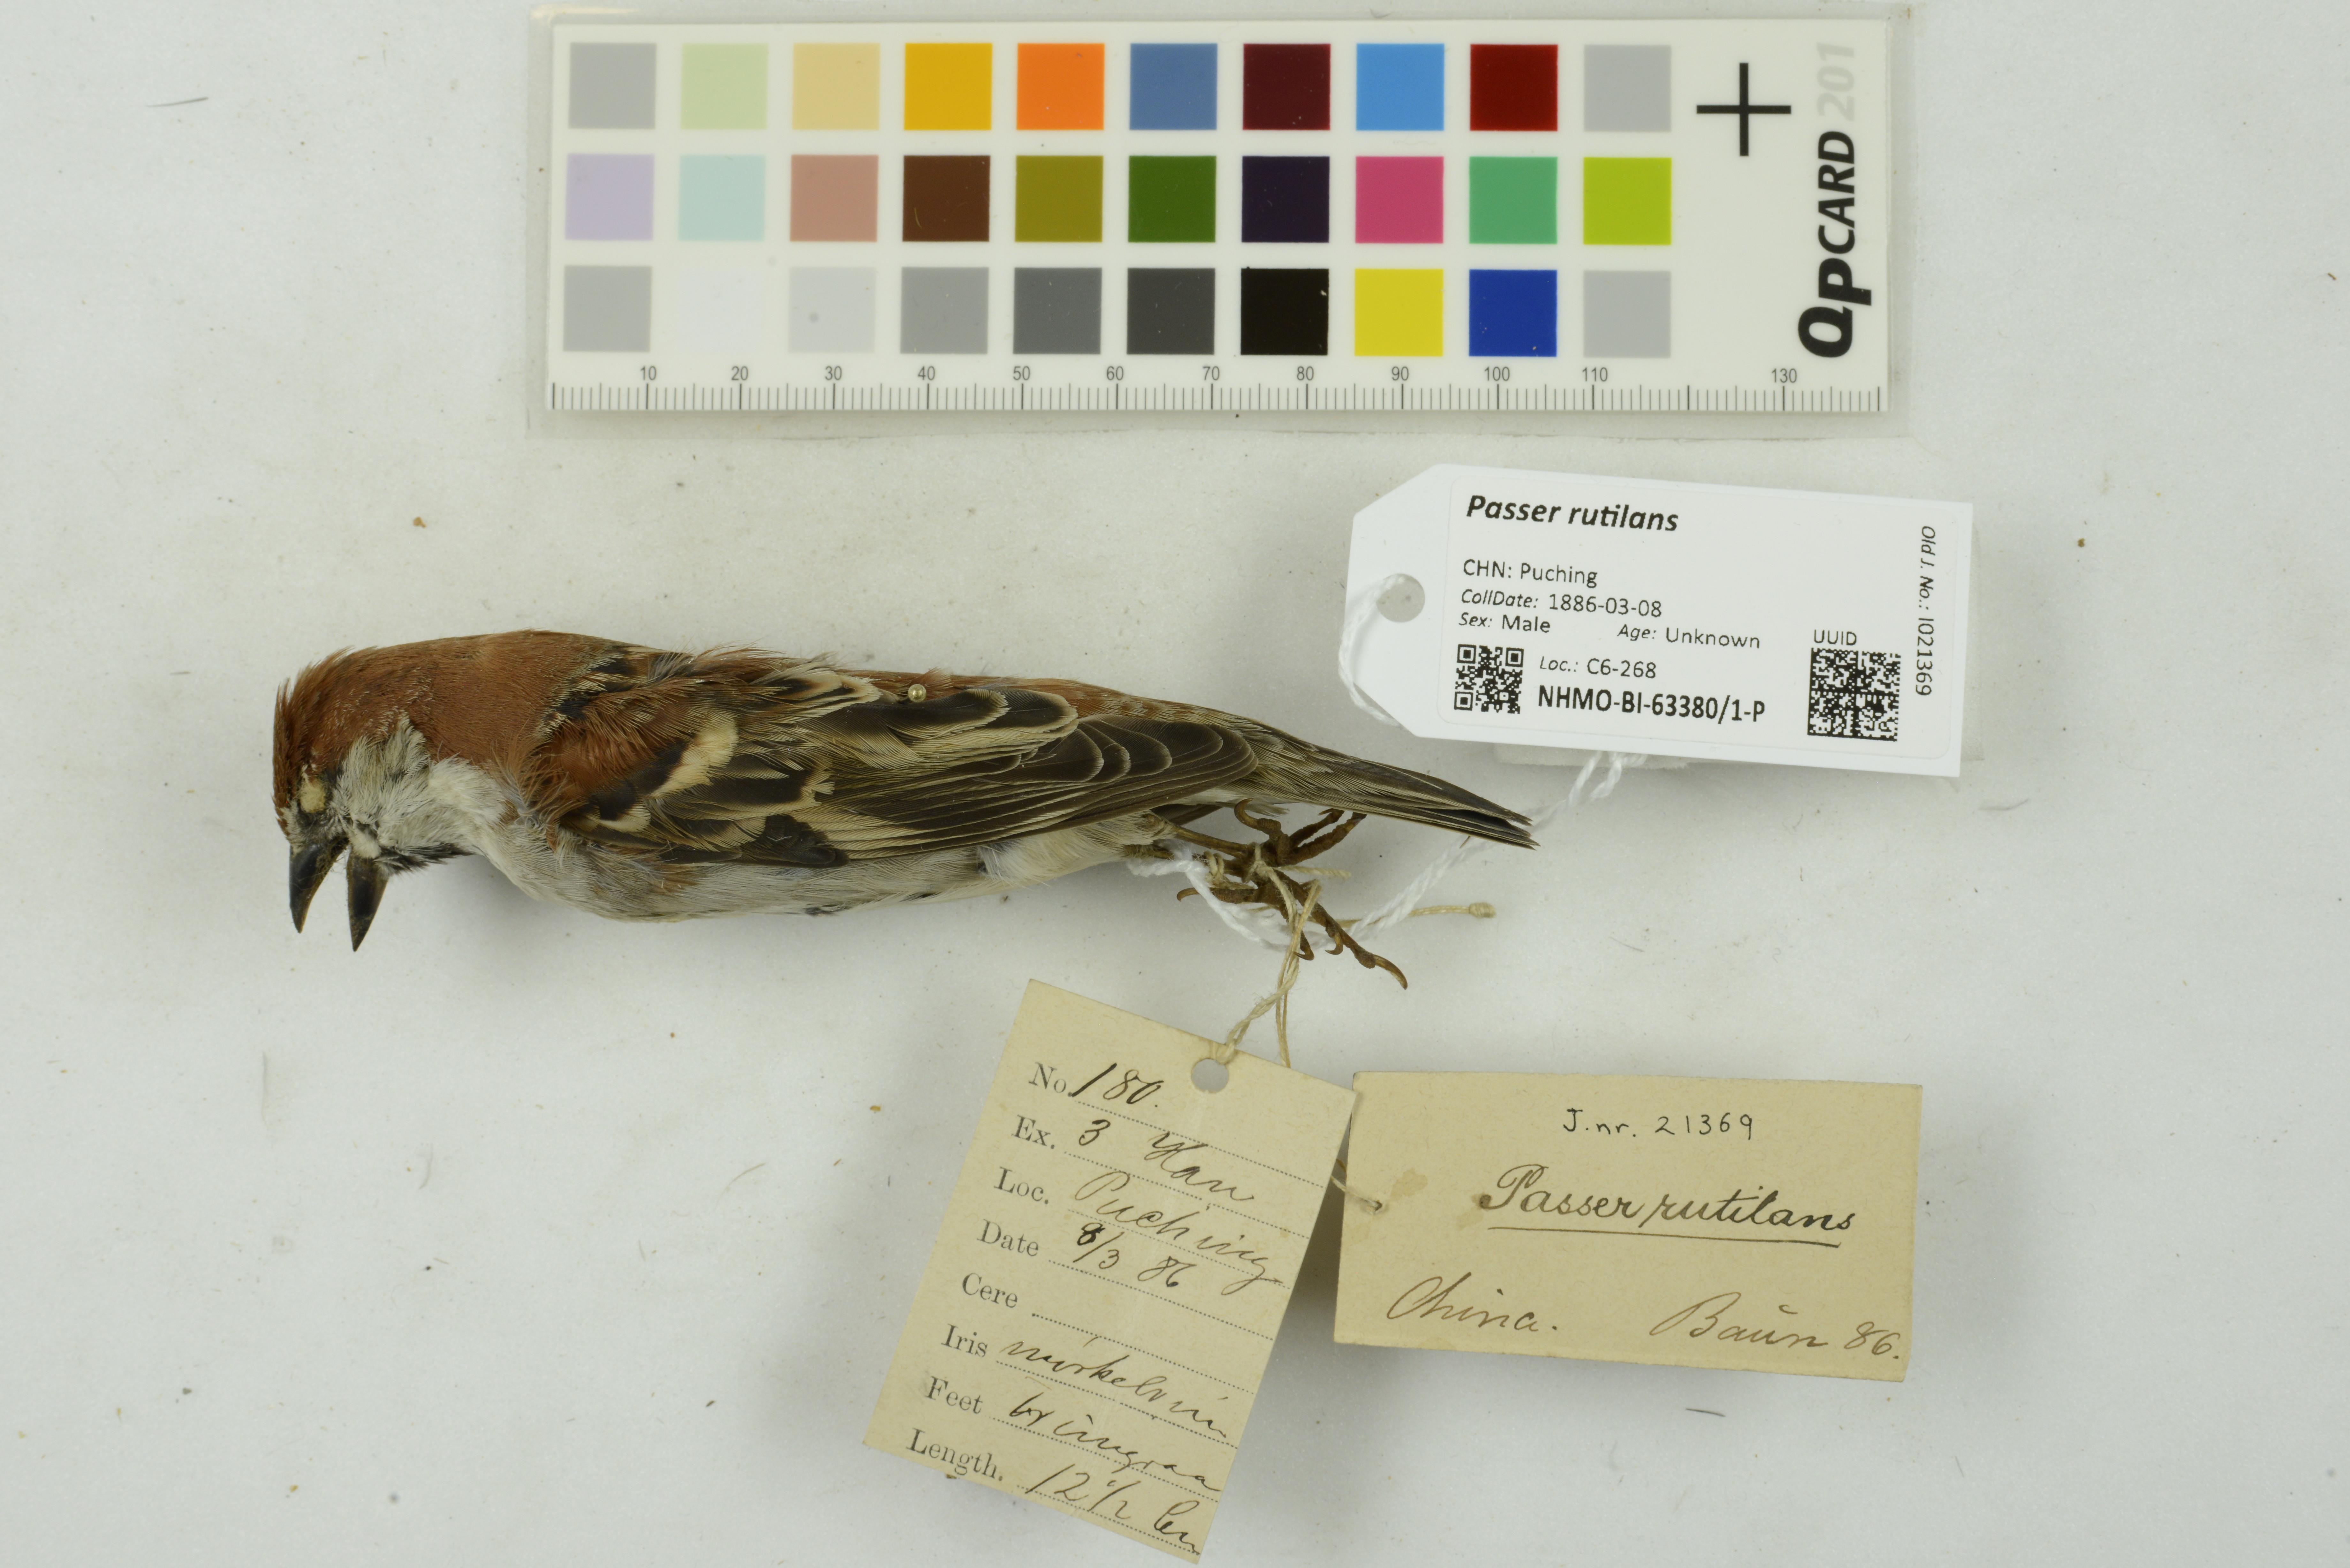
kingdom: Animalia
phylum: Chordata
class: Aves
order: Passeriformes
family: Passeridae
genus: Passer
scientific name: Passer rutilans
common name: Russet sparrow
